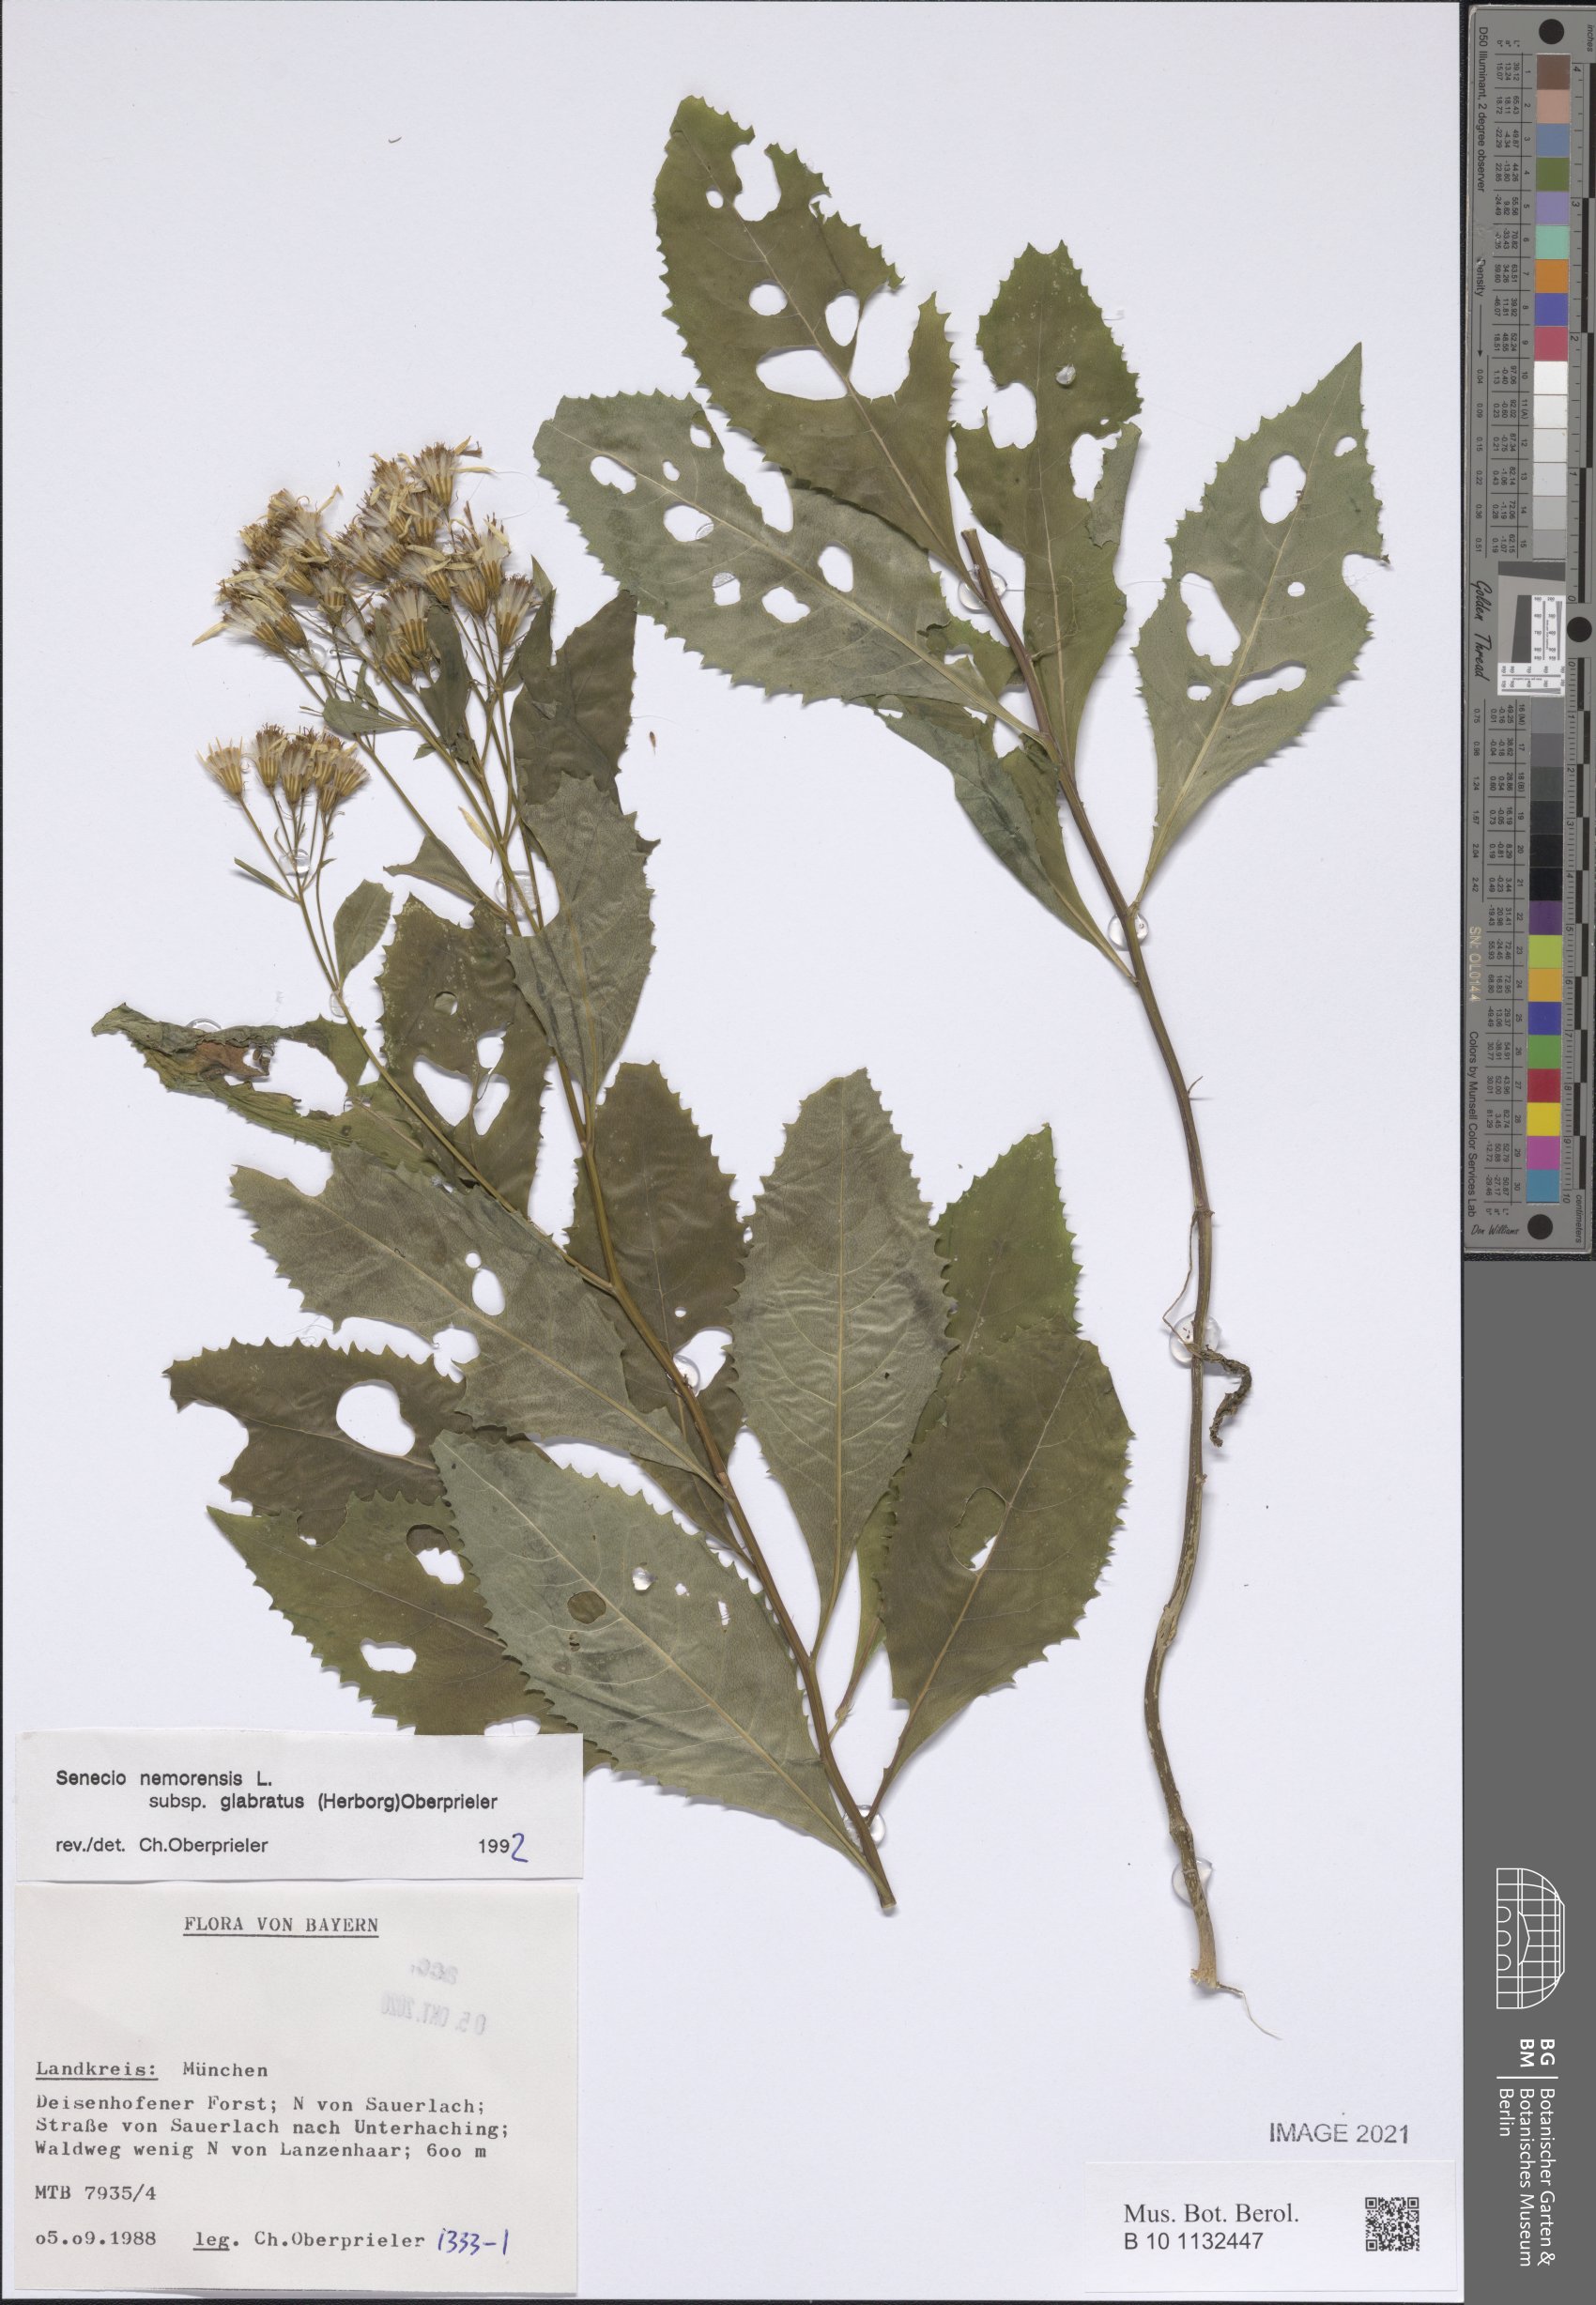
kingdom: Plantae
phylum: Tracheophyta
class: Magnoliopsida
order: Asterales
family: Asteraceae
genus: Senecio
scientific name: Senecio germanicus
